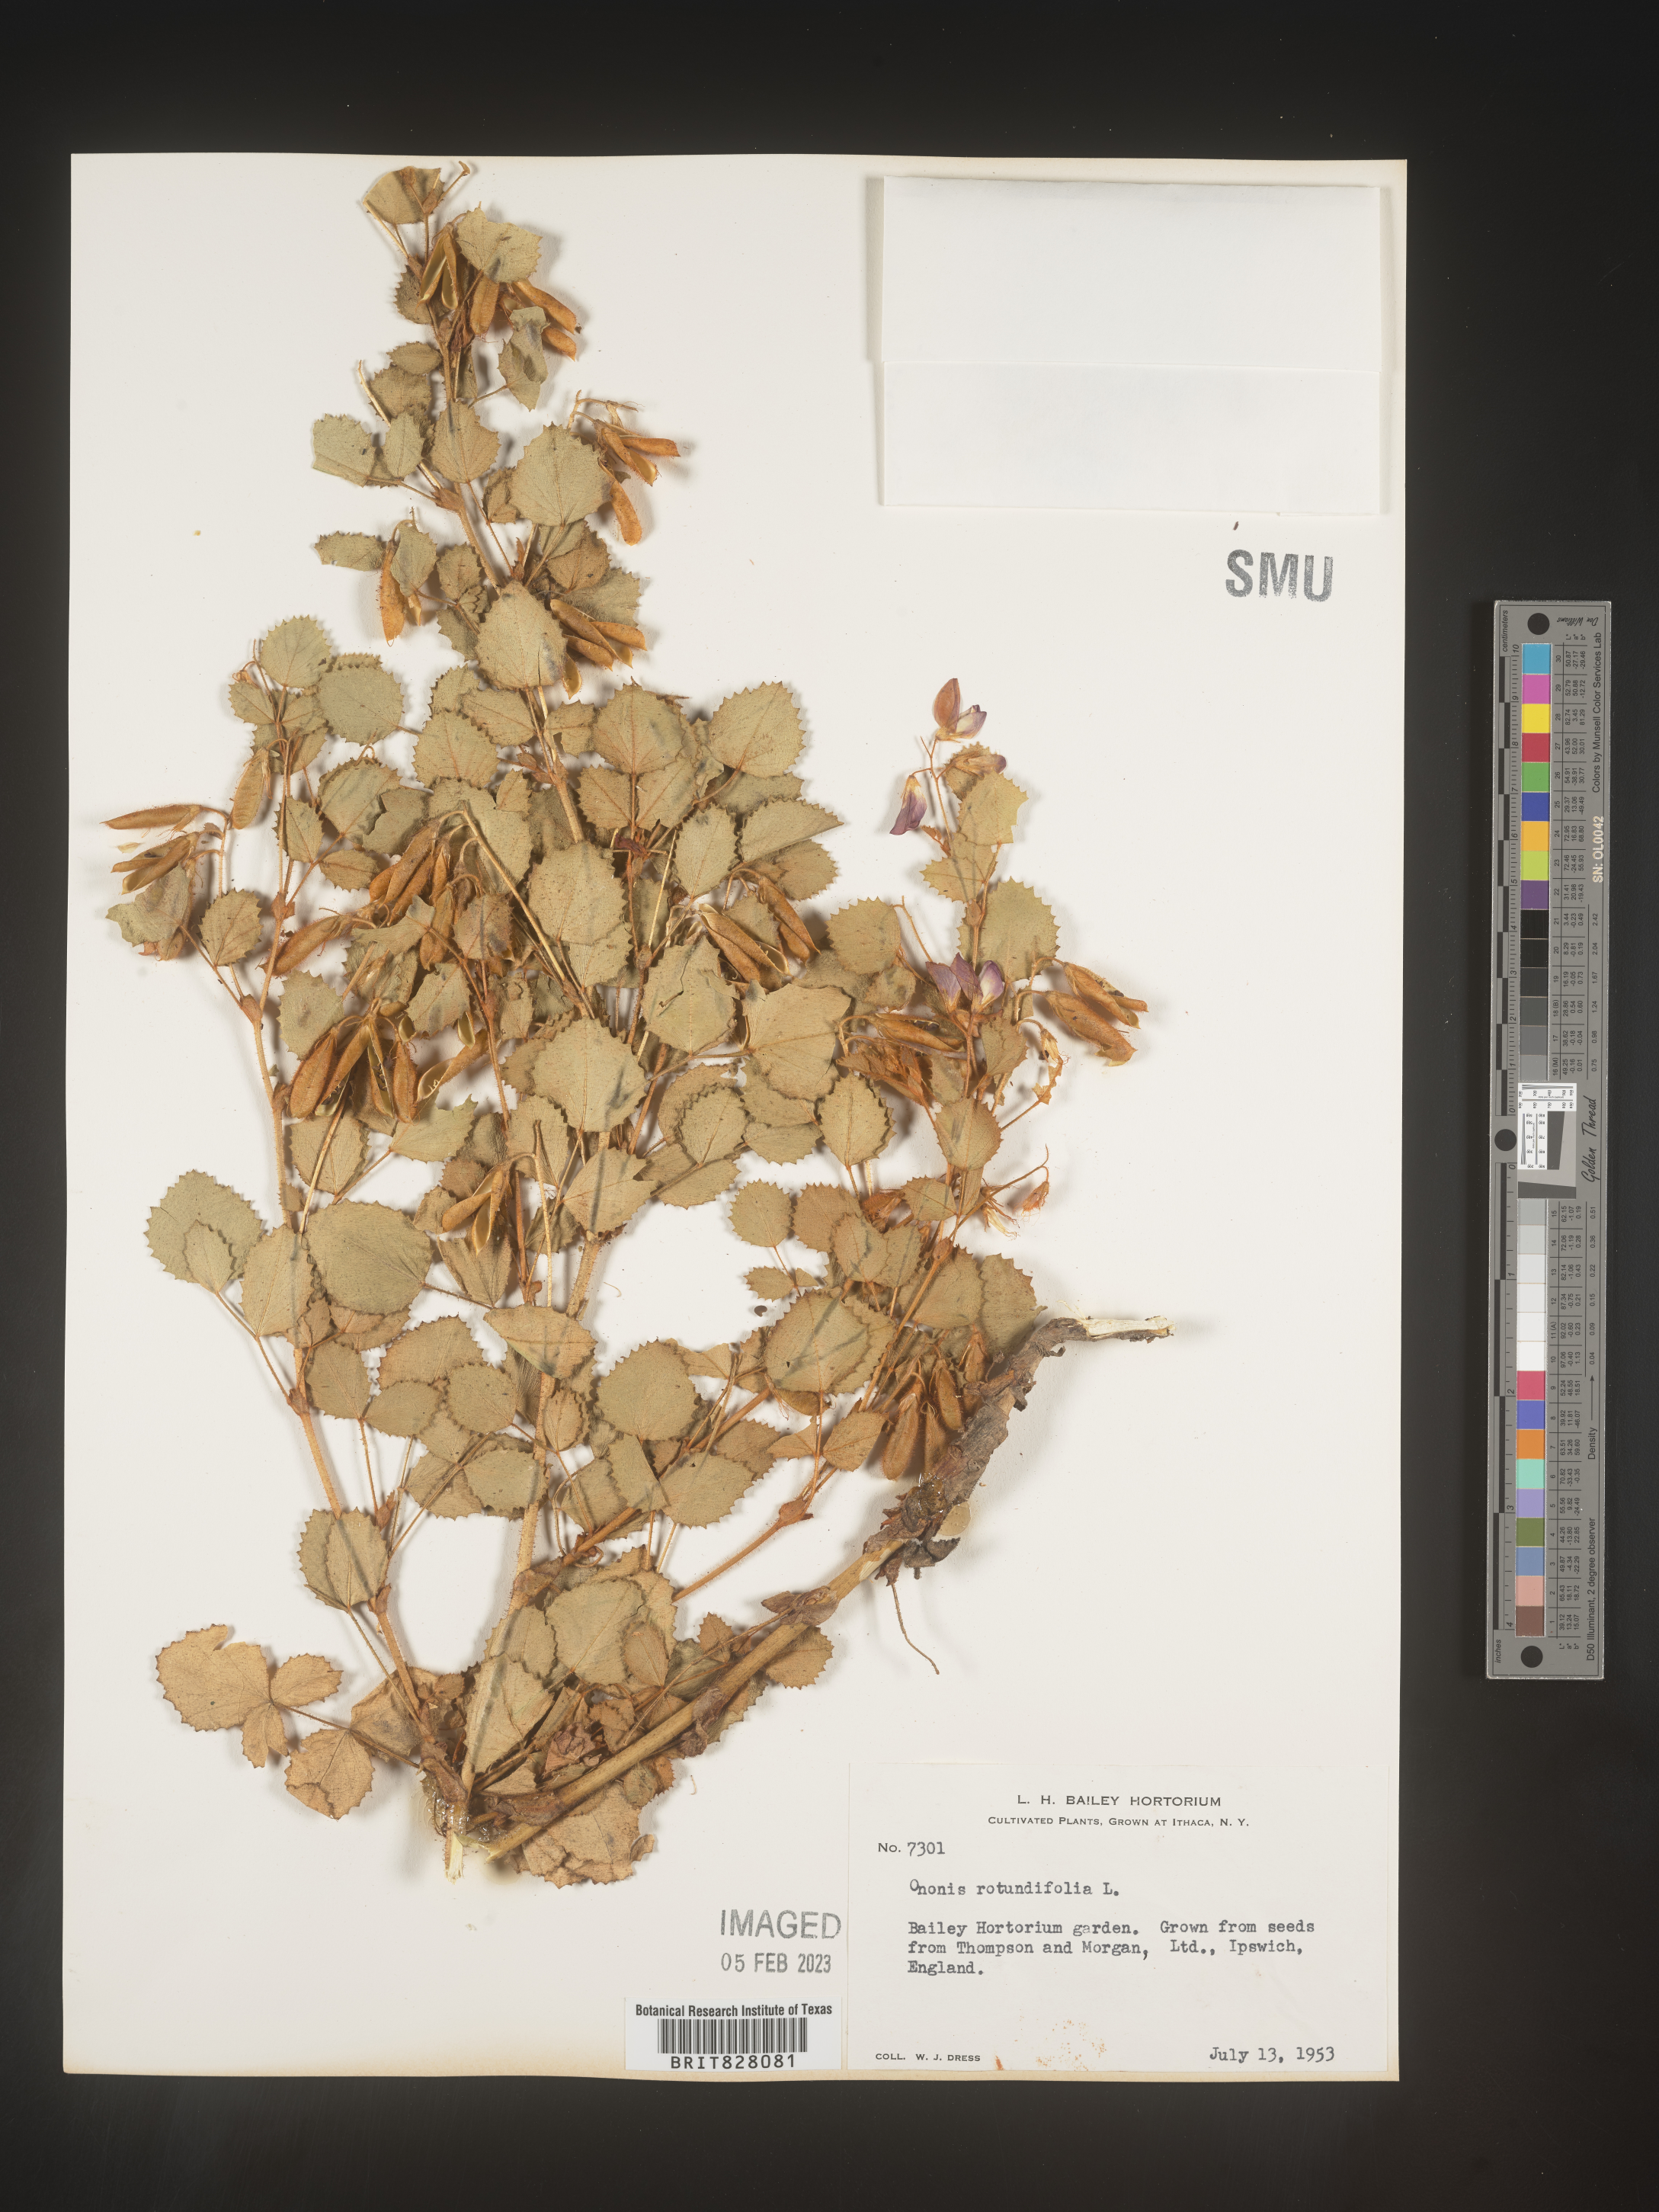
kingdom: Plantae
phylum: Tracheophyta
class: Magnoliopsida
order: Fabales
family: Fabaceae
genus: Ononis
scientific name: Ononis
